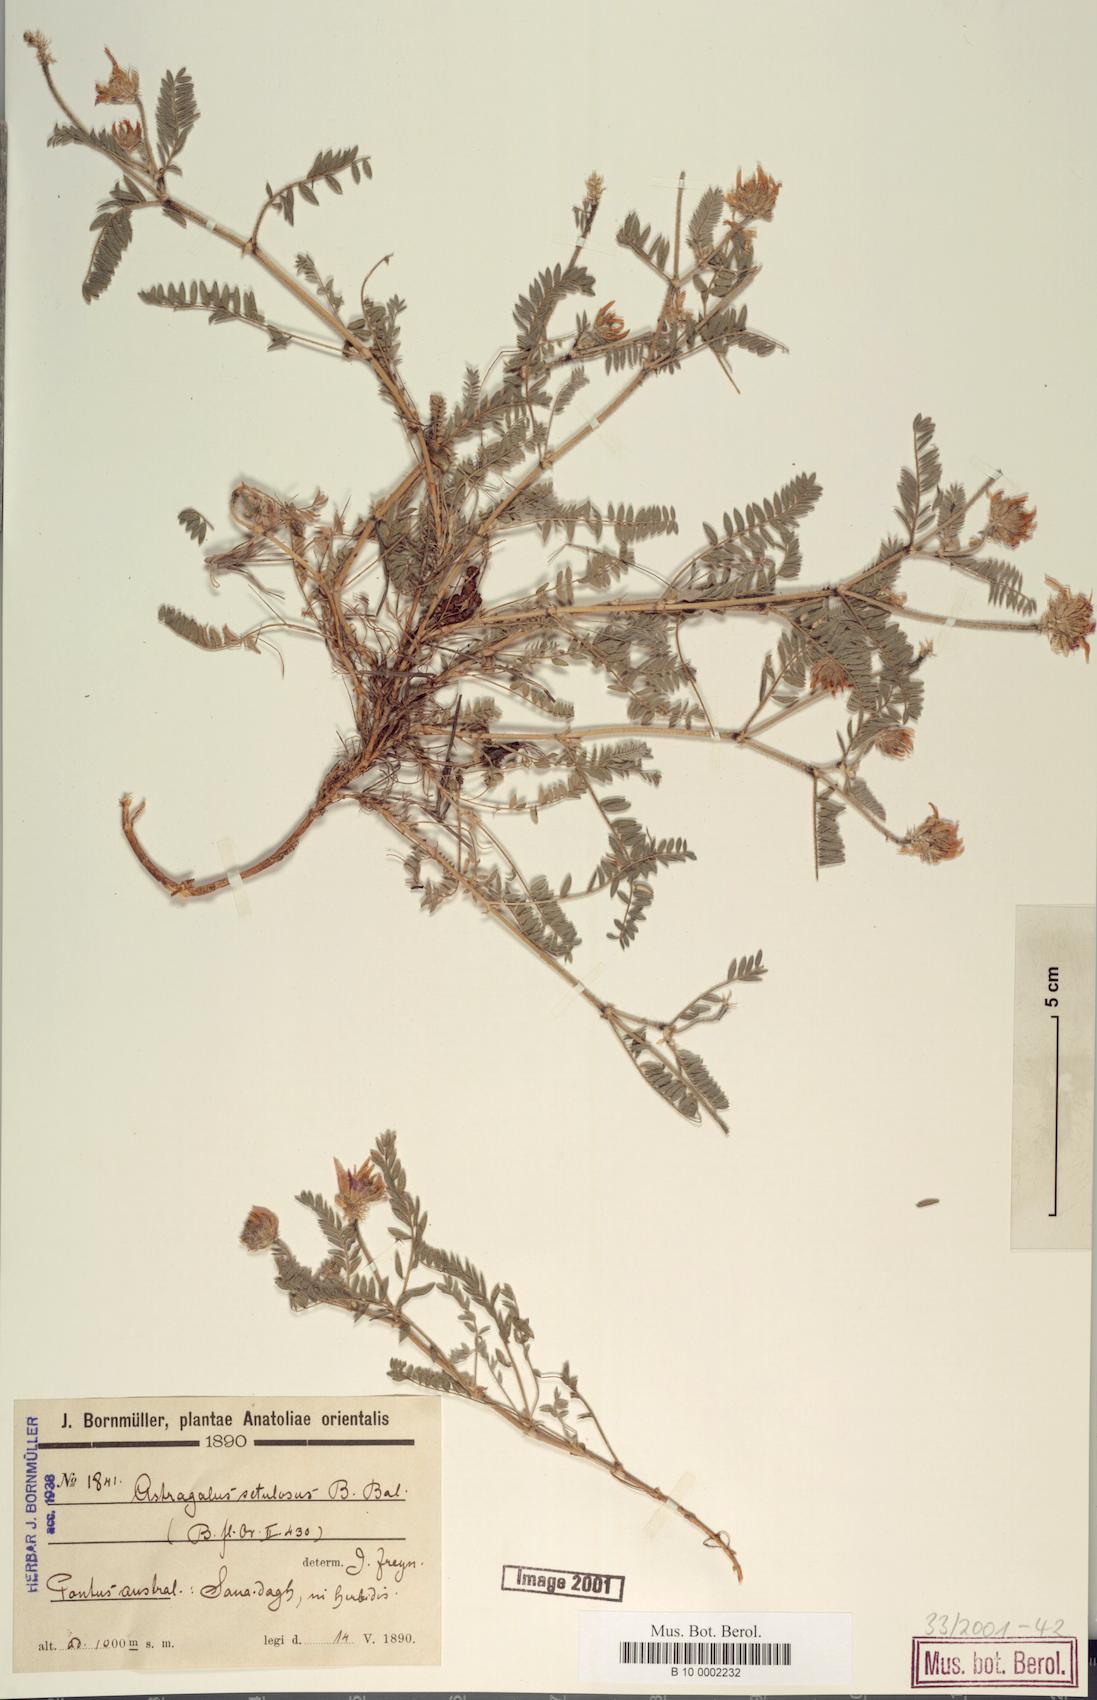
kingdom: Plantae
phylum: Tracheophyta
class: Magnoliopsida
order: Fabales
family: Fabaceae
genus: Astragalus
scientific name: Astragalus setulosus
